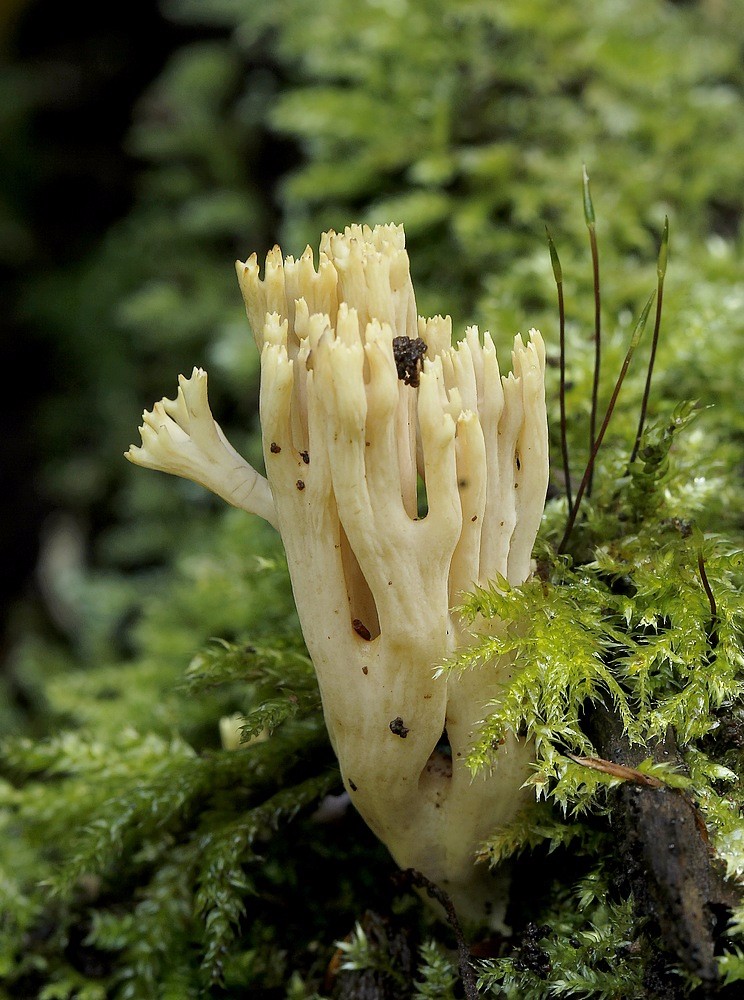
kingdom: Fungi
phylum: Basidiomycota
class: Agaricomycetes
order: Gomphales
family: Gomphaceae
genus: Ramaria
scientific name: Ramaria stricta
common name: rank koralsvamp
